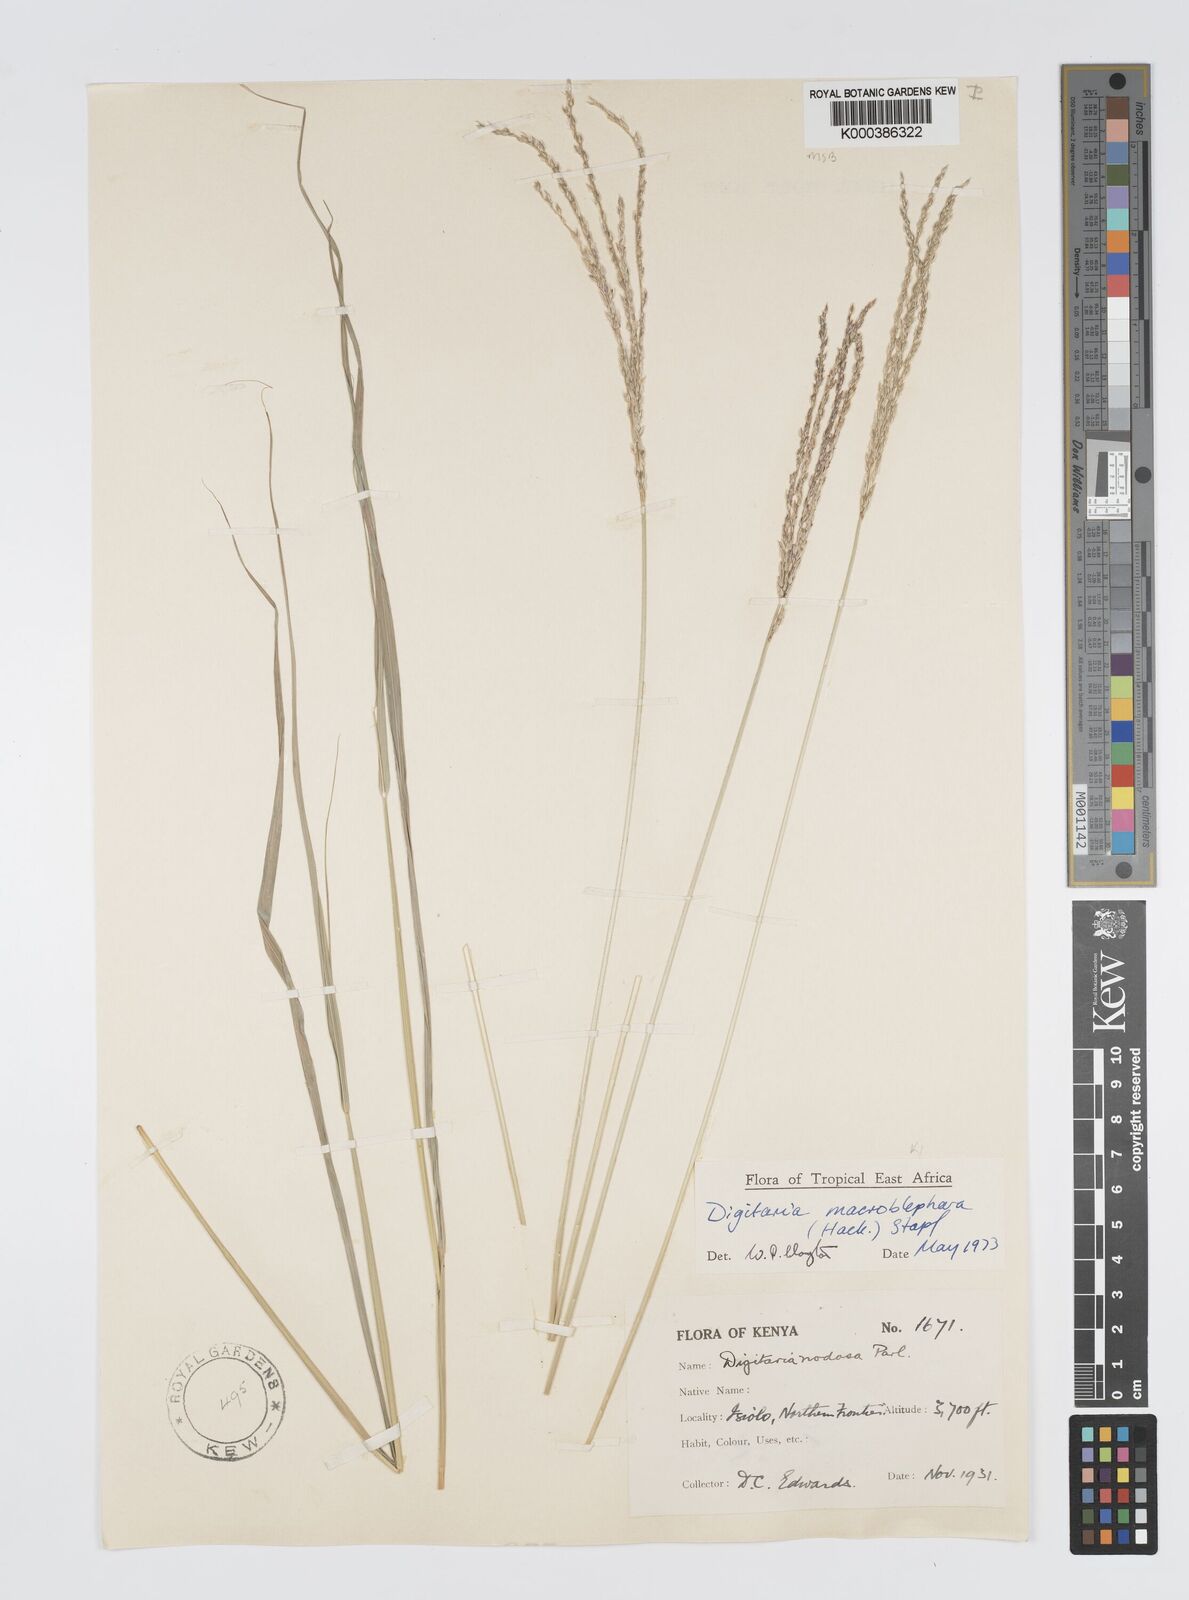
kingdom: Plantae
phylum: Tracheophyta
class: Liliopsida
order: Poales
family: Poaceae
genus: Digitaria
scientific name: Digitaria macroblephara
